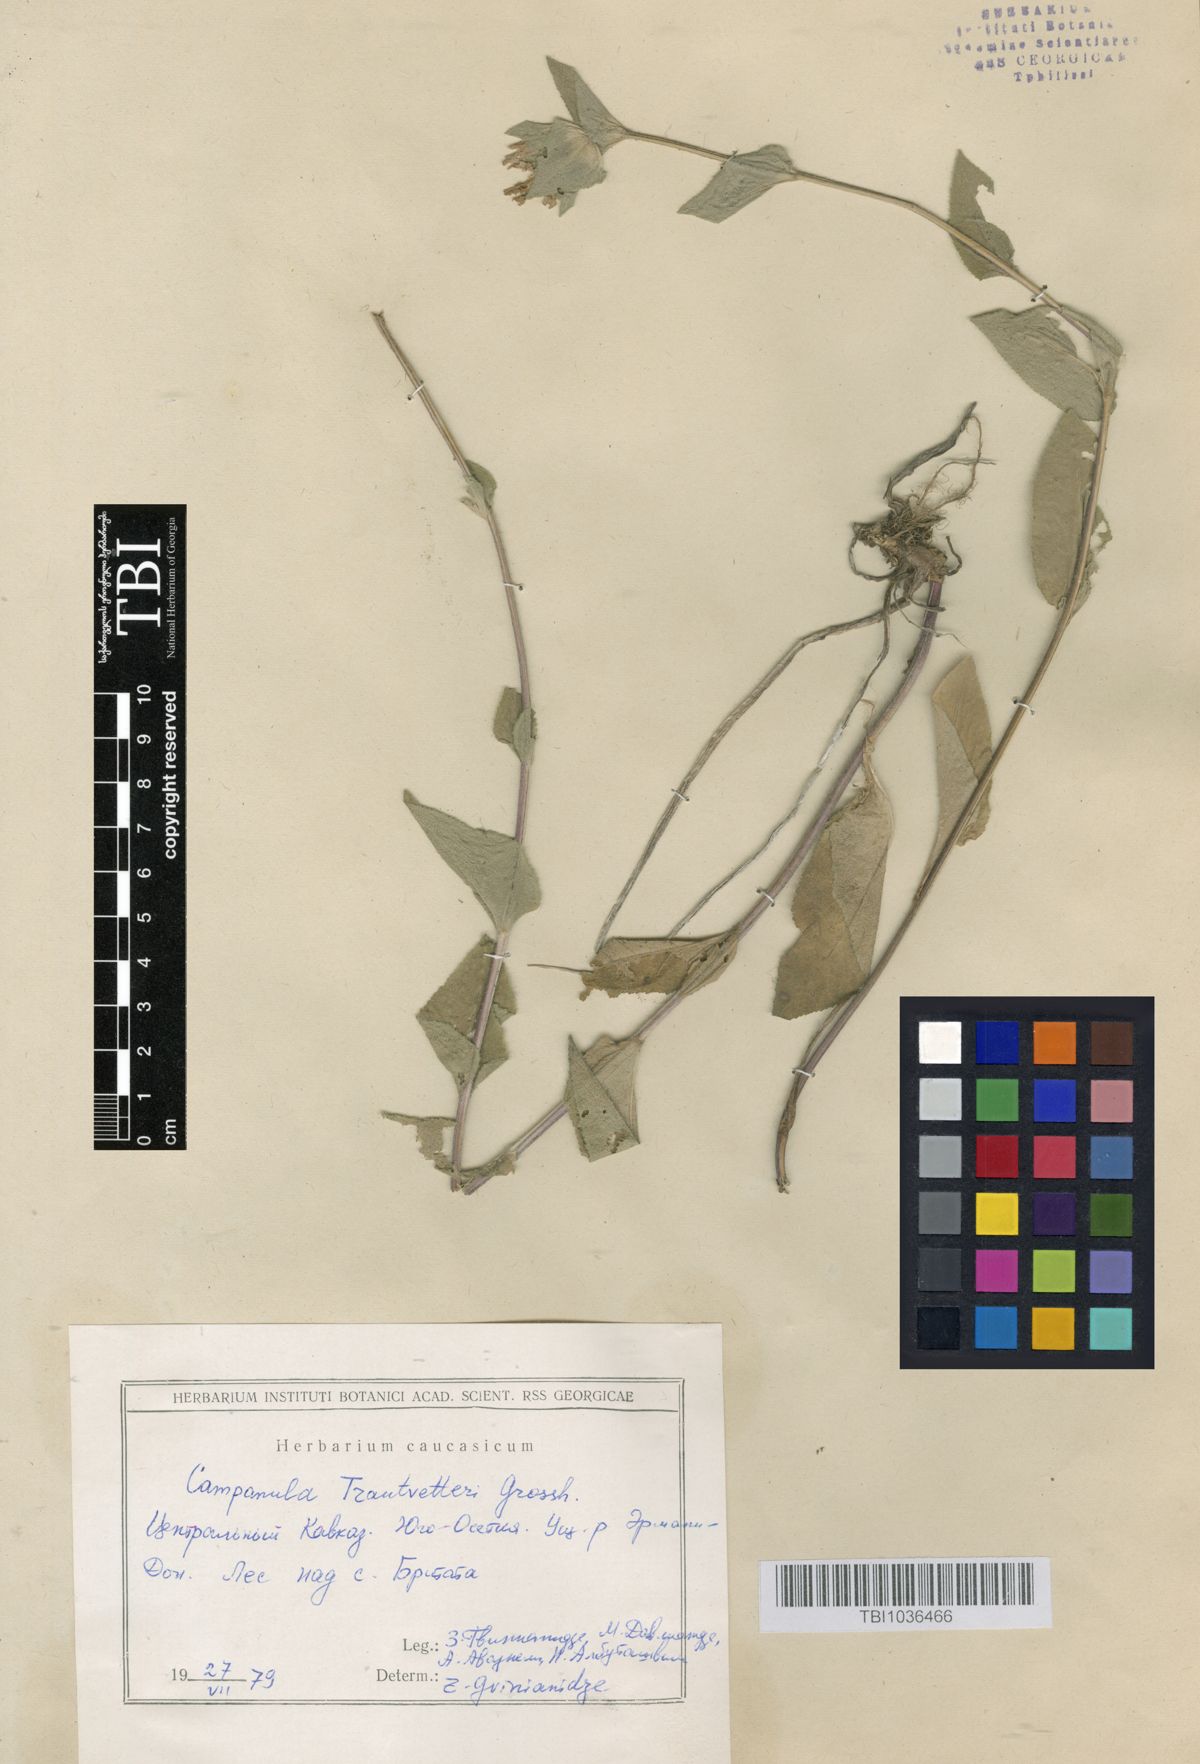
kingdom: Plantae
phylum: Tracheophyta
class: Magnoliopsida
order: Asterales
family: Campanulaceae
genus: Campanula
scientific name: Campanula glomerata
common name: Clustered bellflower
